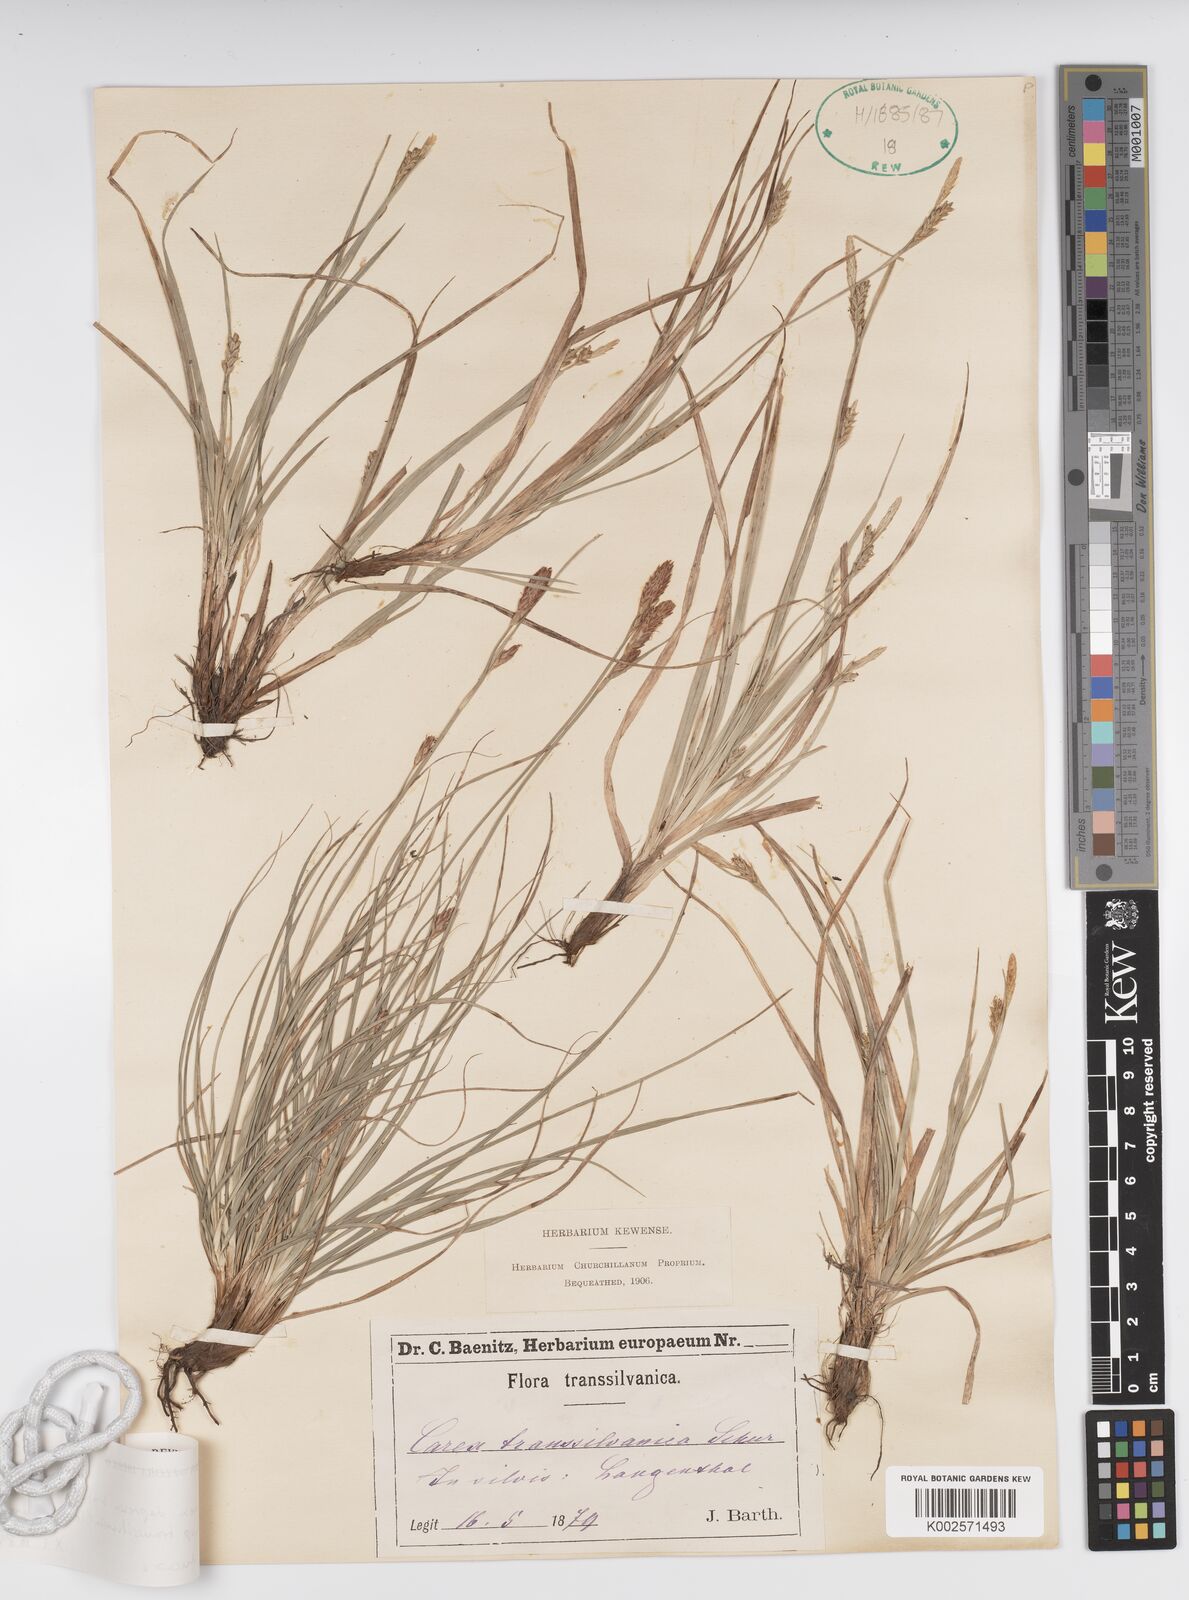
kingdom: Plantae
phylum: Tracheophyta
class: Liliopsida
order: Poales
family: Cyperaceae
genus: Carex
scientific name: Carex depressa
